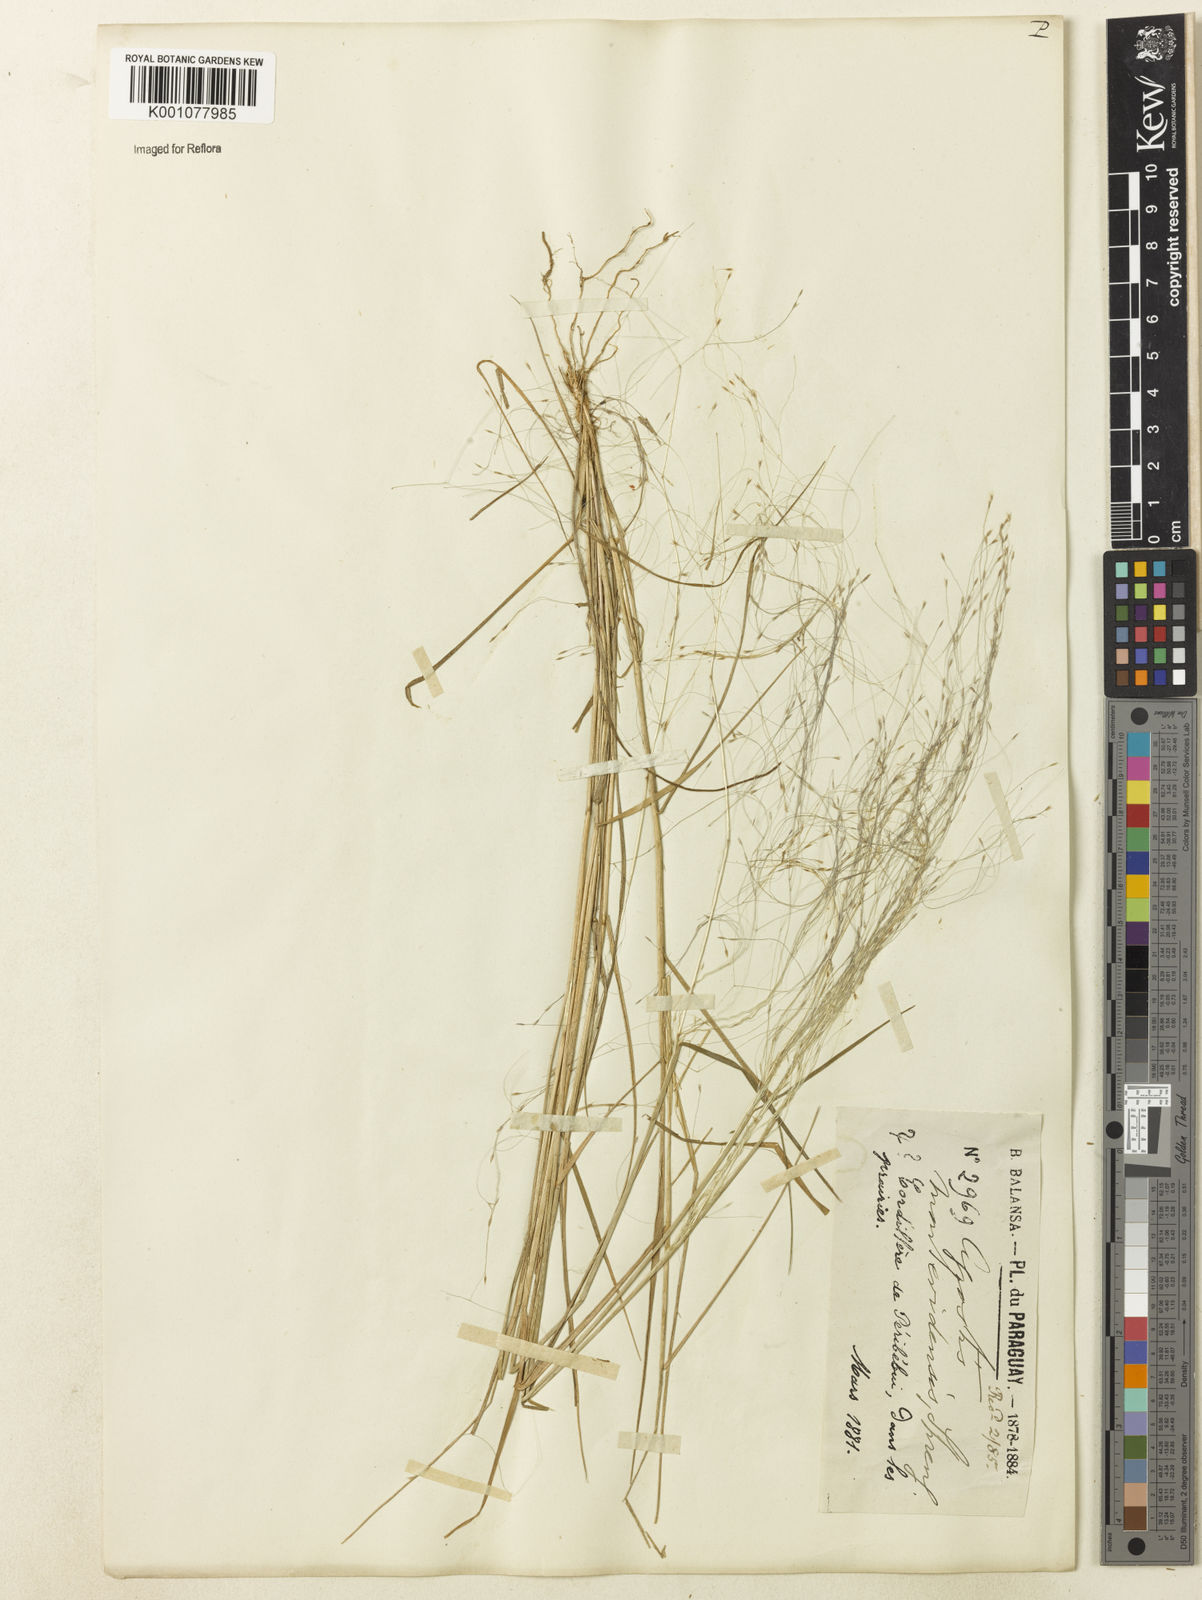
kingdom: Plantae
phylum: Tracheophyta
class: Liliopsida
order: Poales
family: Poaceae
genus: Agrostis
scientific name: Agrostis montevidensis
